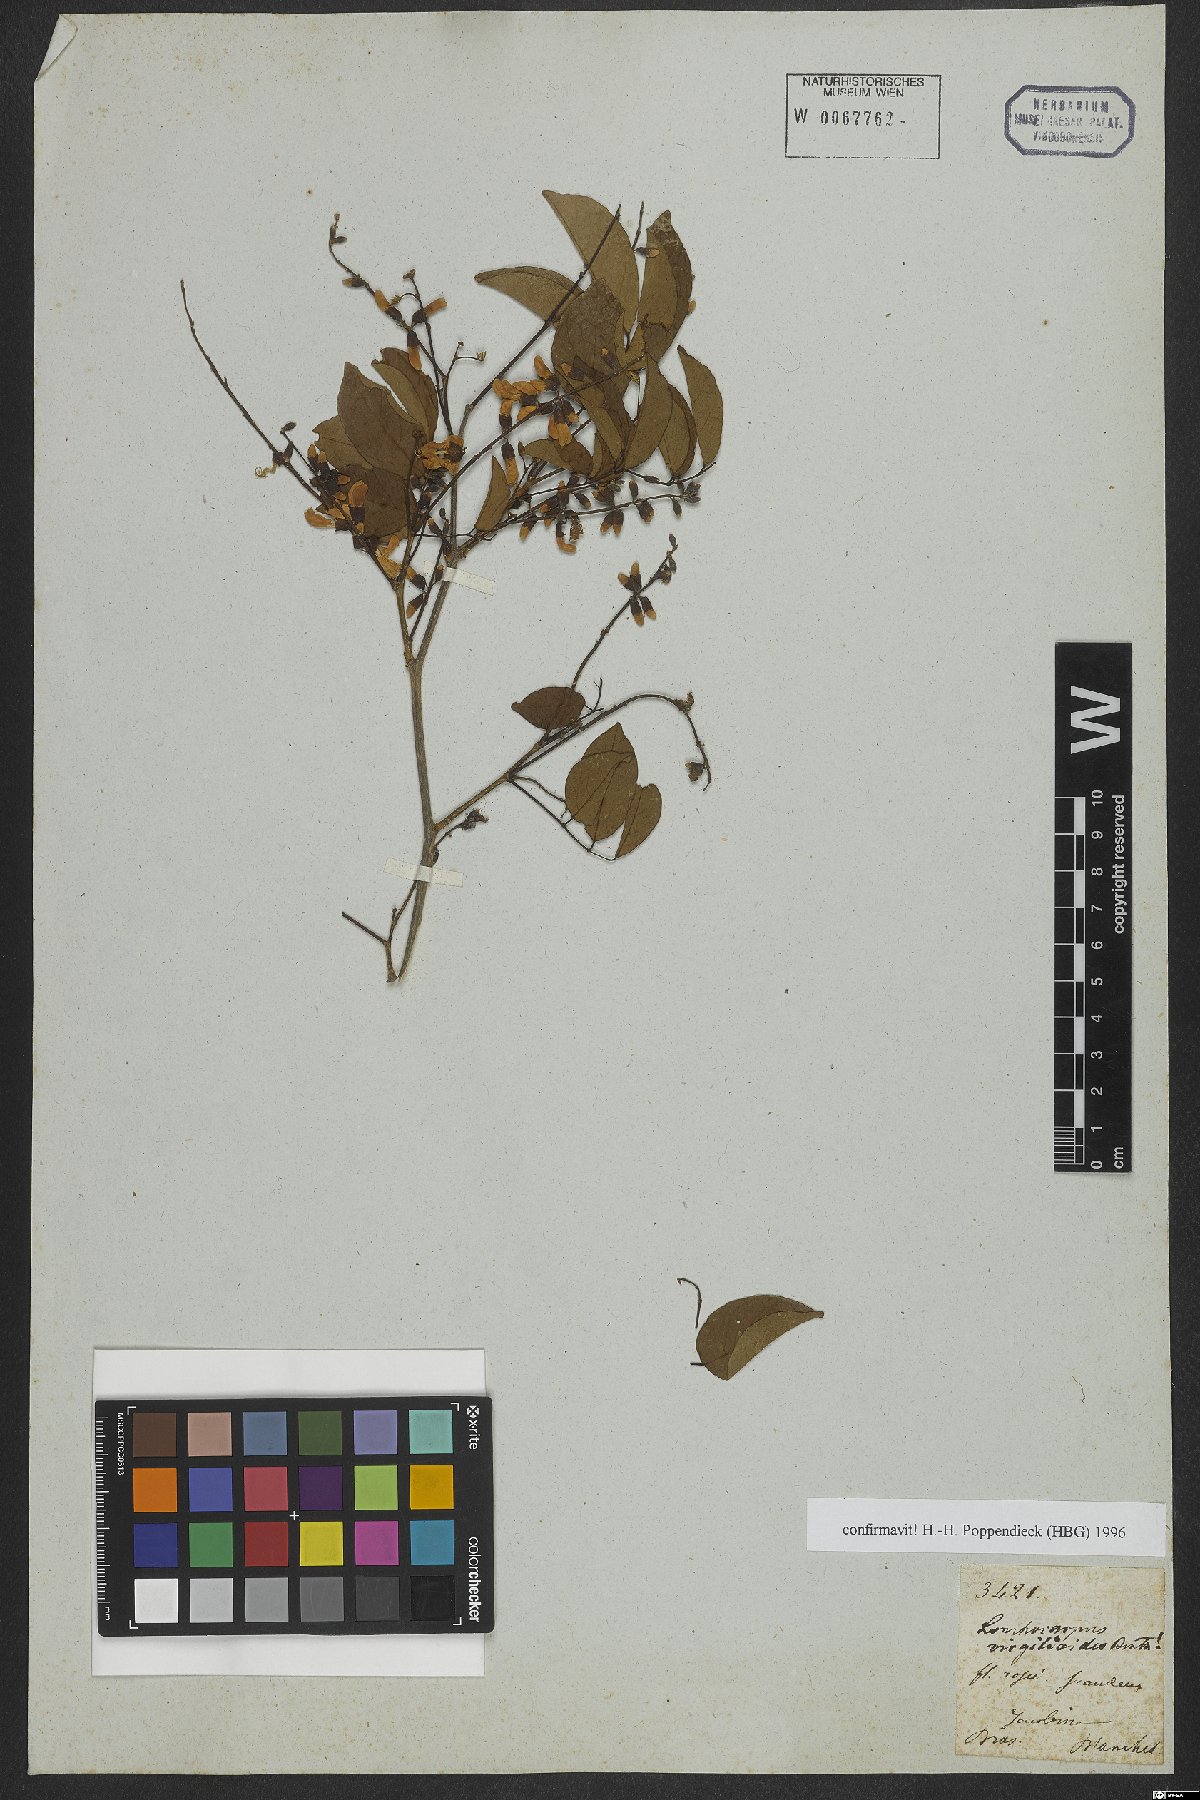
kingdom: Plantae
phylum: Tracheophyta
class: Magnoliopsida
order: Fabales
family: Fabaceae
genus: Muellera
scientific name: Muellera virgilioides
